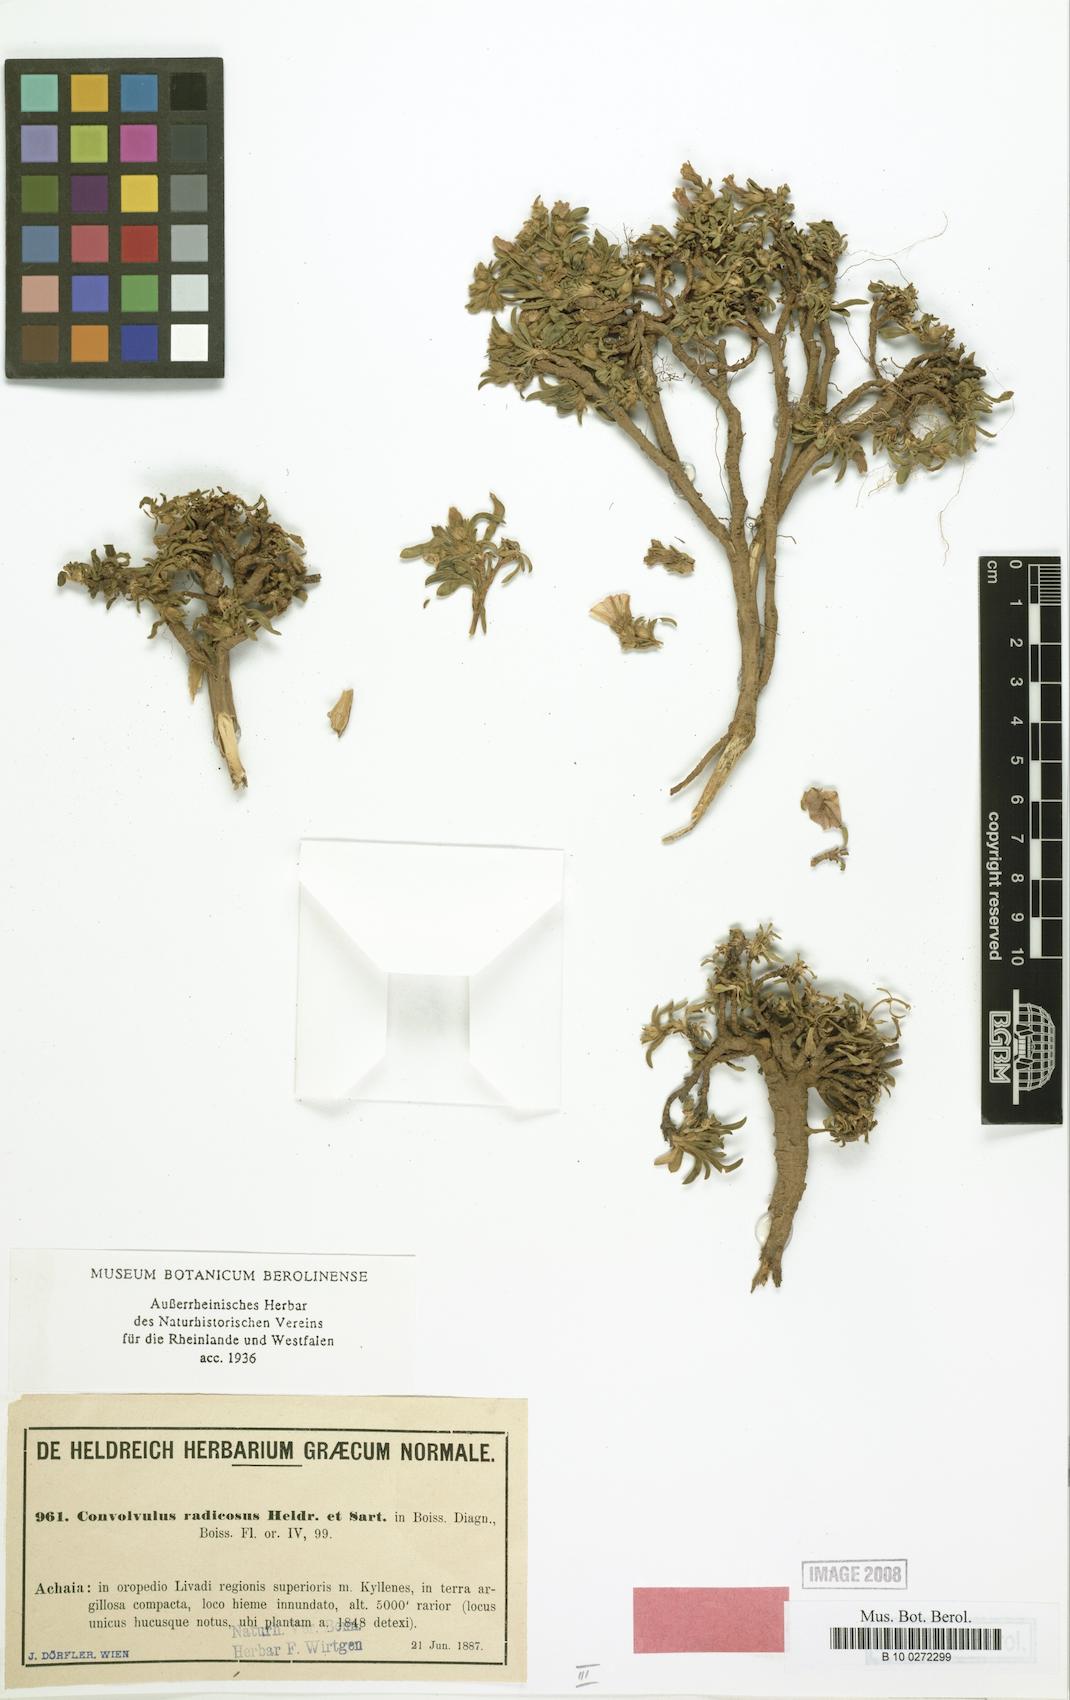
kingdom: Plantae
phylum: Tracheophyta
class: Magnoliopsida
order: Solanales
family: Convolvulaceae
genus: Convolvulus
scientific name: Convolvulus libanoticus
